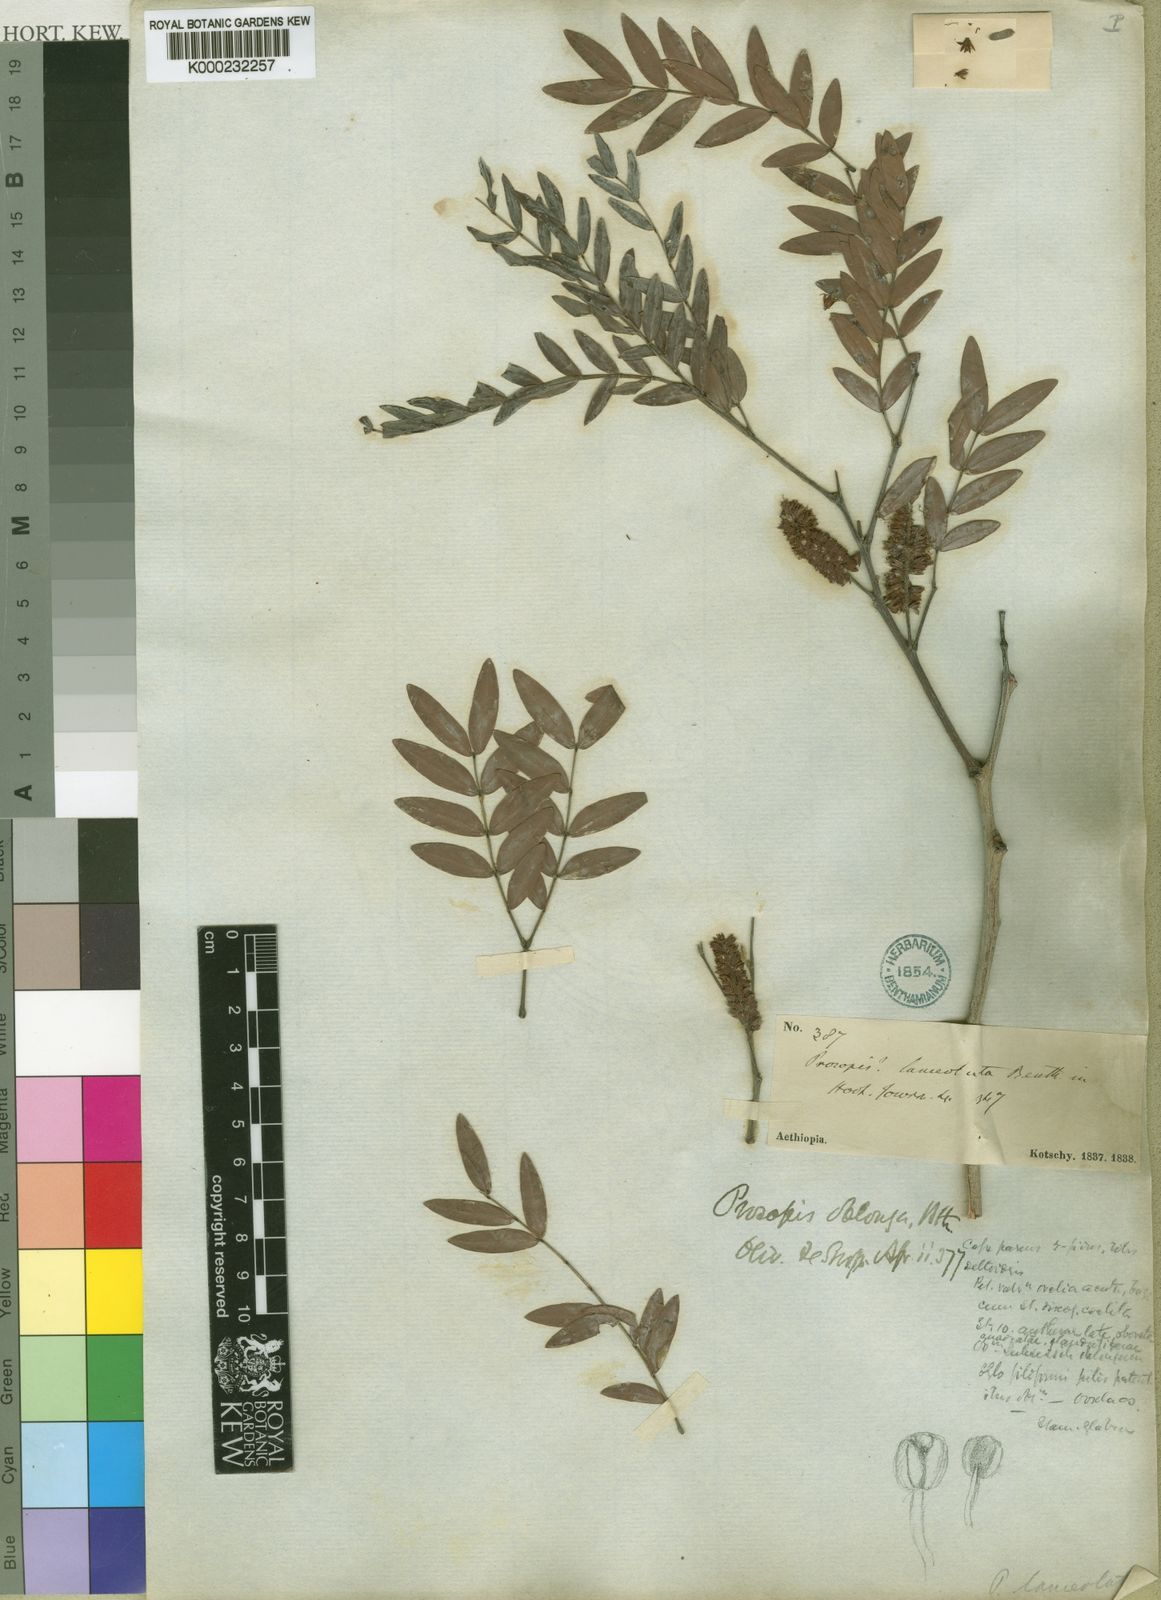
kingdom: Plantae
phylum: Tracheophyta
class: Magnoliopsida
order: Fabales
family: Fabaceae
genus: Prosopis
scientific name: Prosopis africana
